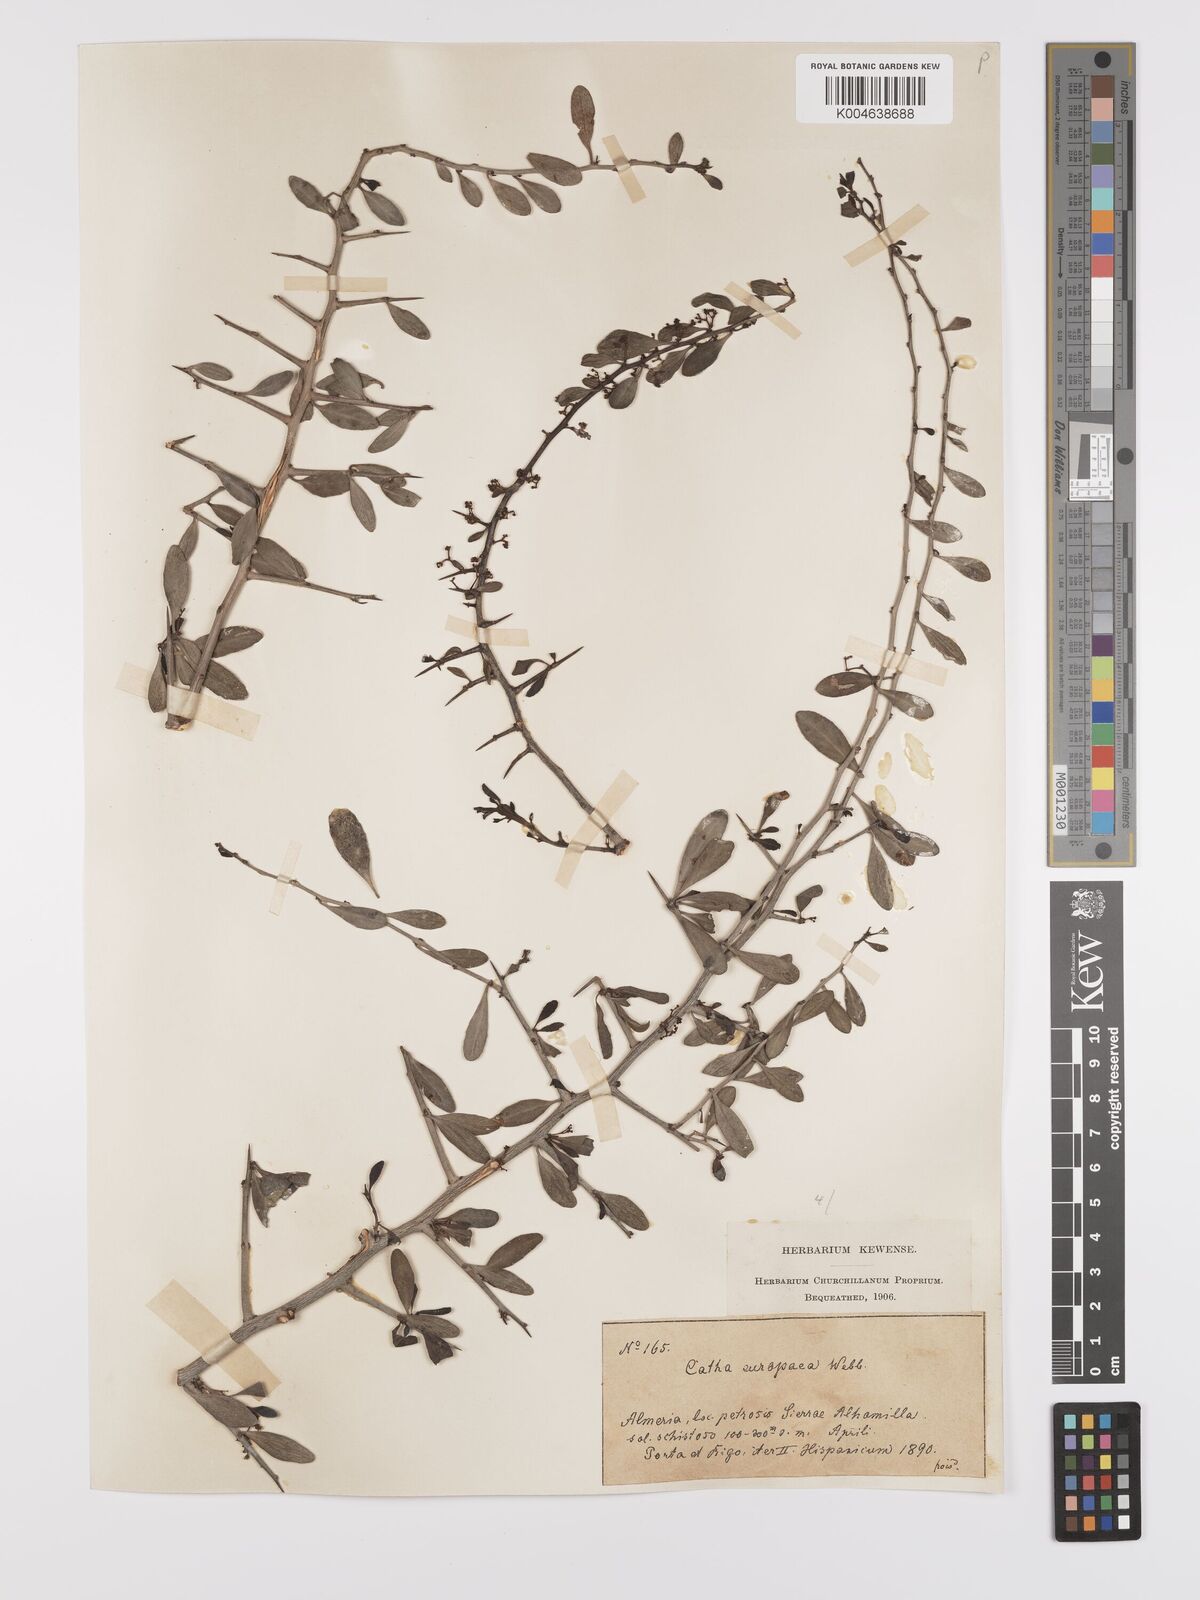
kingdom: Plantae
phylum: Tracheophyta
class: Magnoliopsida
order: Celastrales
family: Celastraceae
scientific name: Celastraceae
